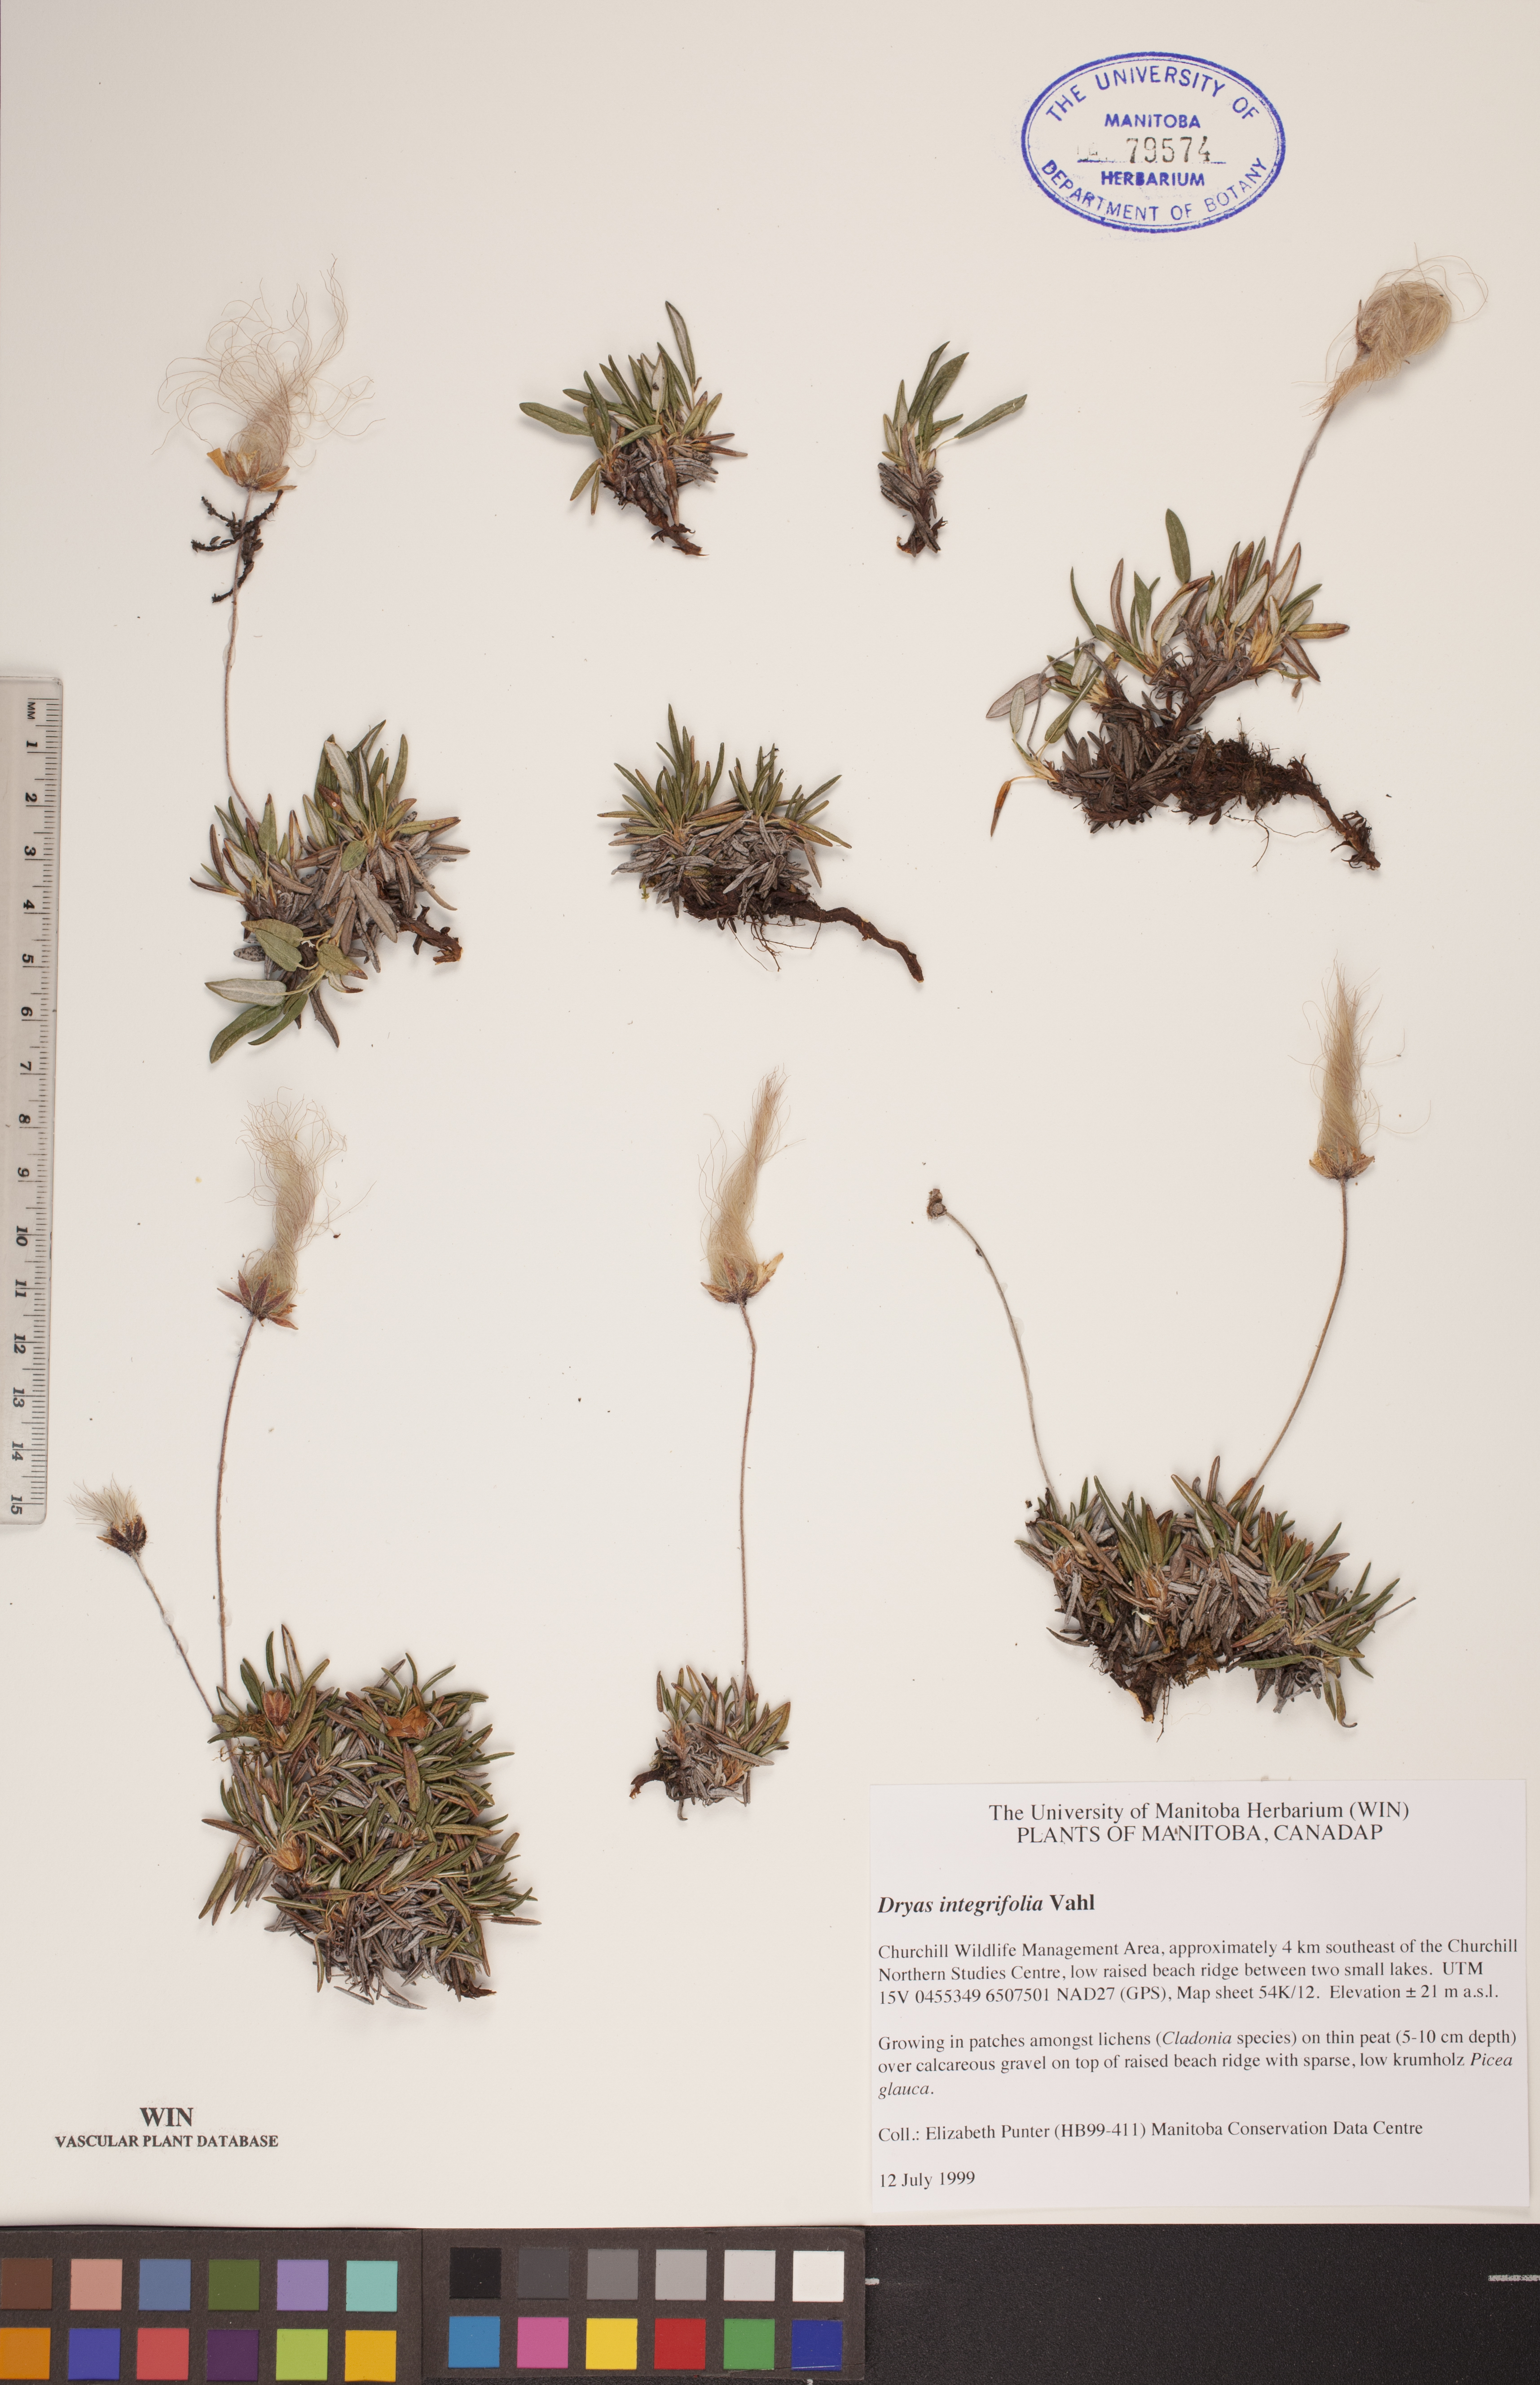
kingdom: Plantae
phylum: Tracheophyta
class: Magnoliopsida
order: Rosales
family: Rosaceae
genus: Dryas
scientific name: Dryas integrifolia
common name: Entire-leaved mountain avens
